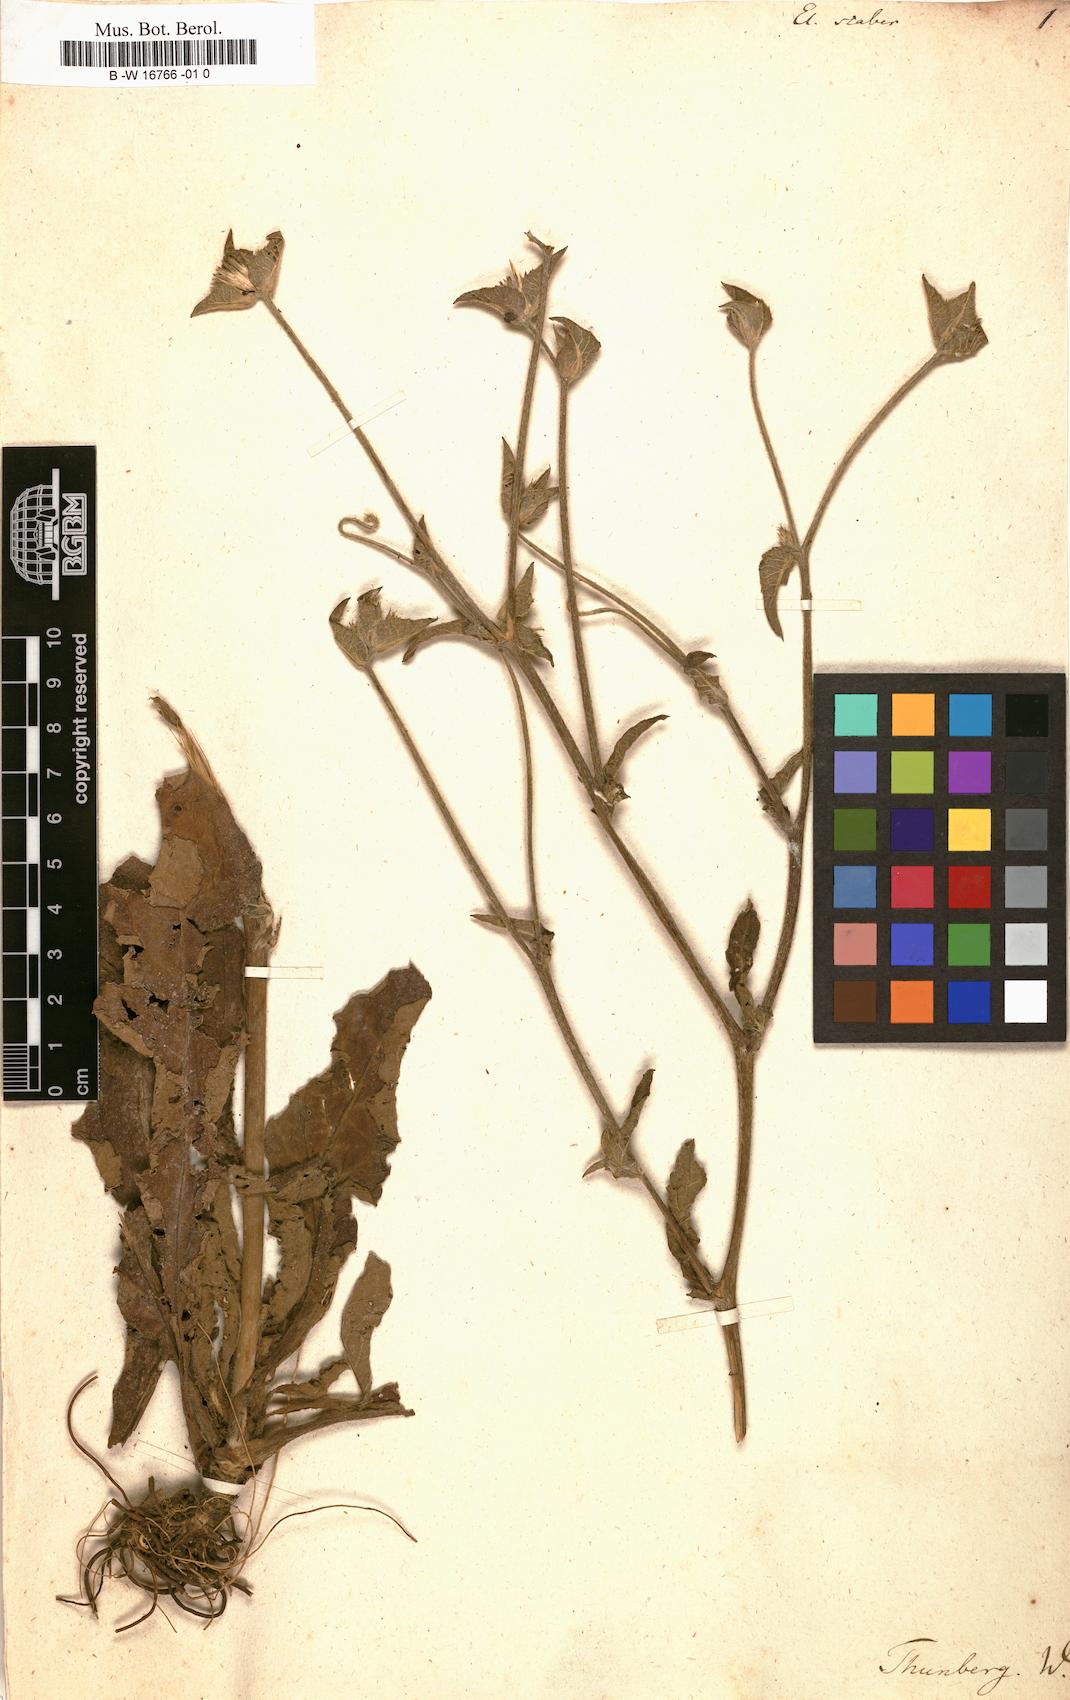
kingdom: Plantae
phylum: Tracheophyta
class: Magnoliopsida
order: Asterales
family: Asteraceae
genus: Elephantopus
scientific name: Elephantopus scaber
